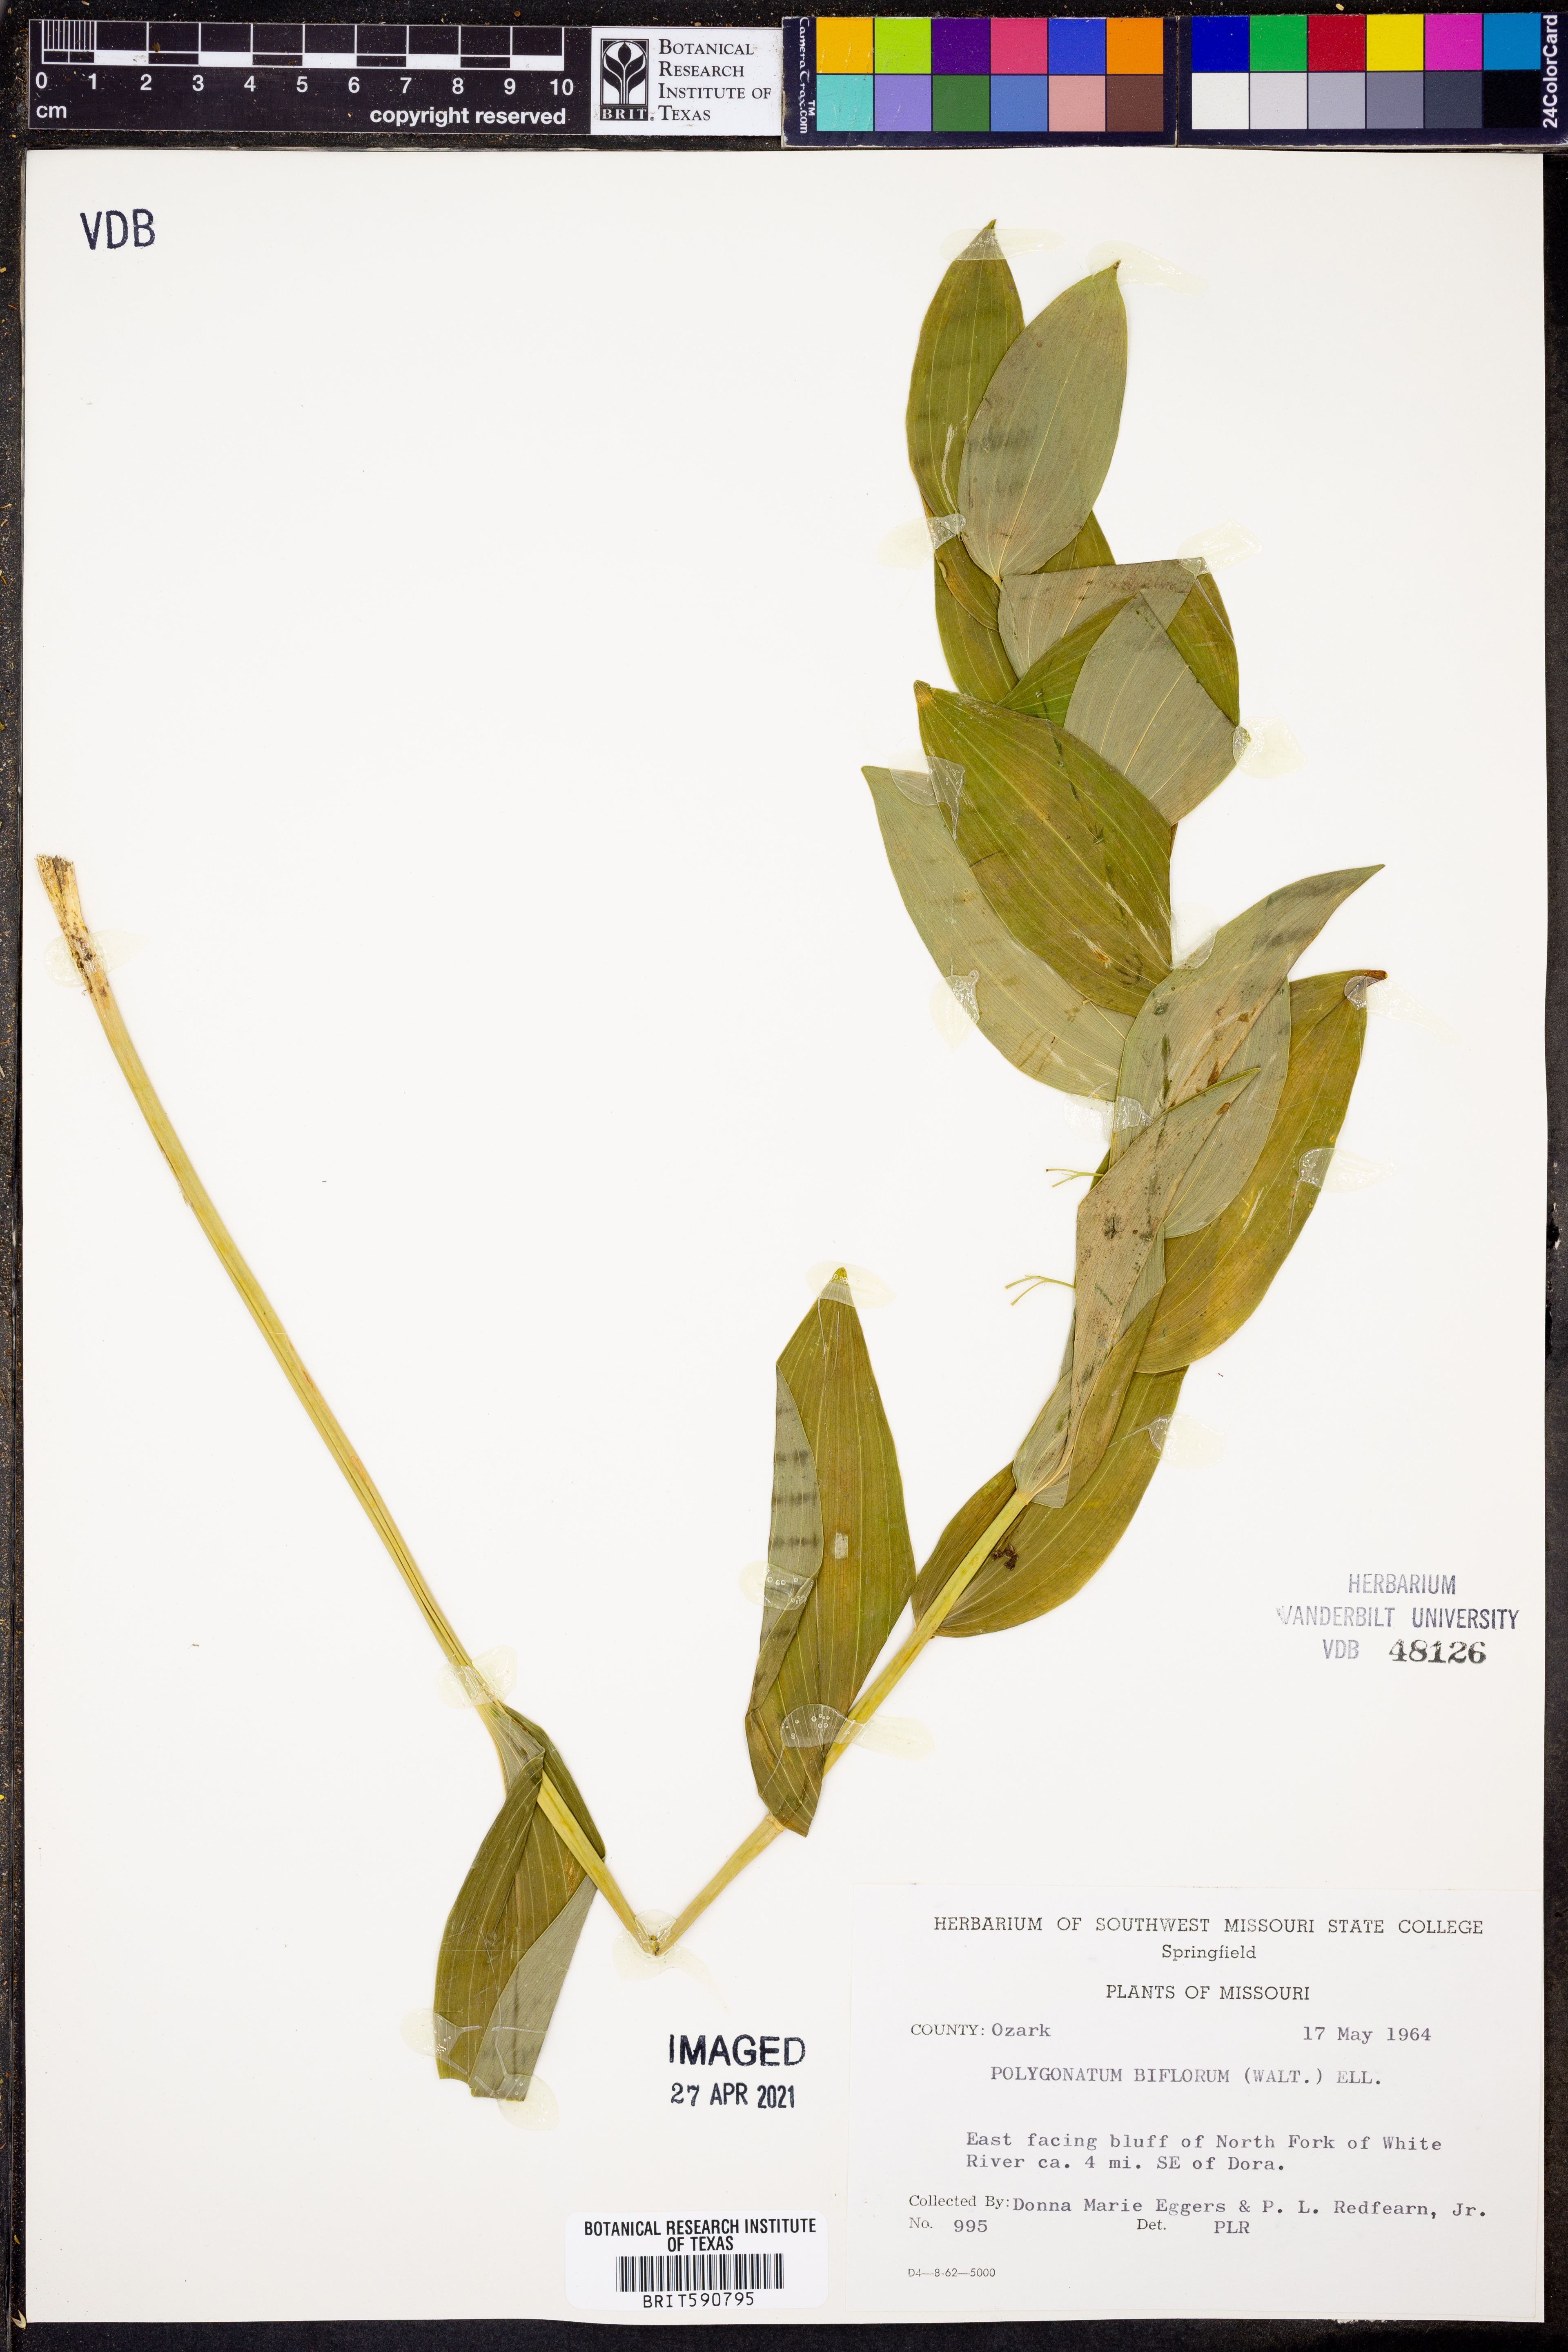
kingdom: Plantae
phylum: Tracheophyta
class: Liliopsida
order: Asparagales
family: Asparagaceae
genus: Polygonatum
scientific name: Polygonatum biflorum
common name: American solomon's-seal
